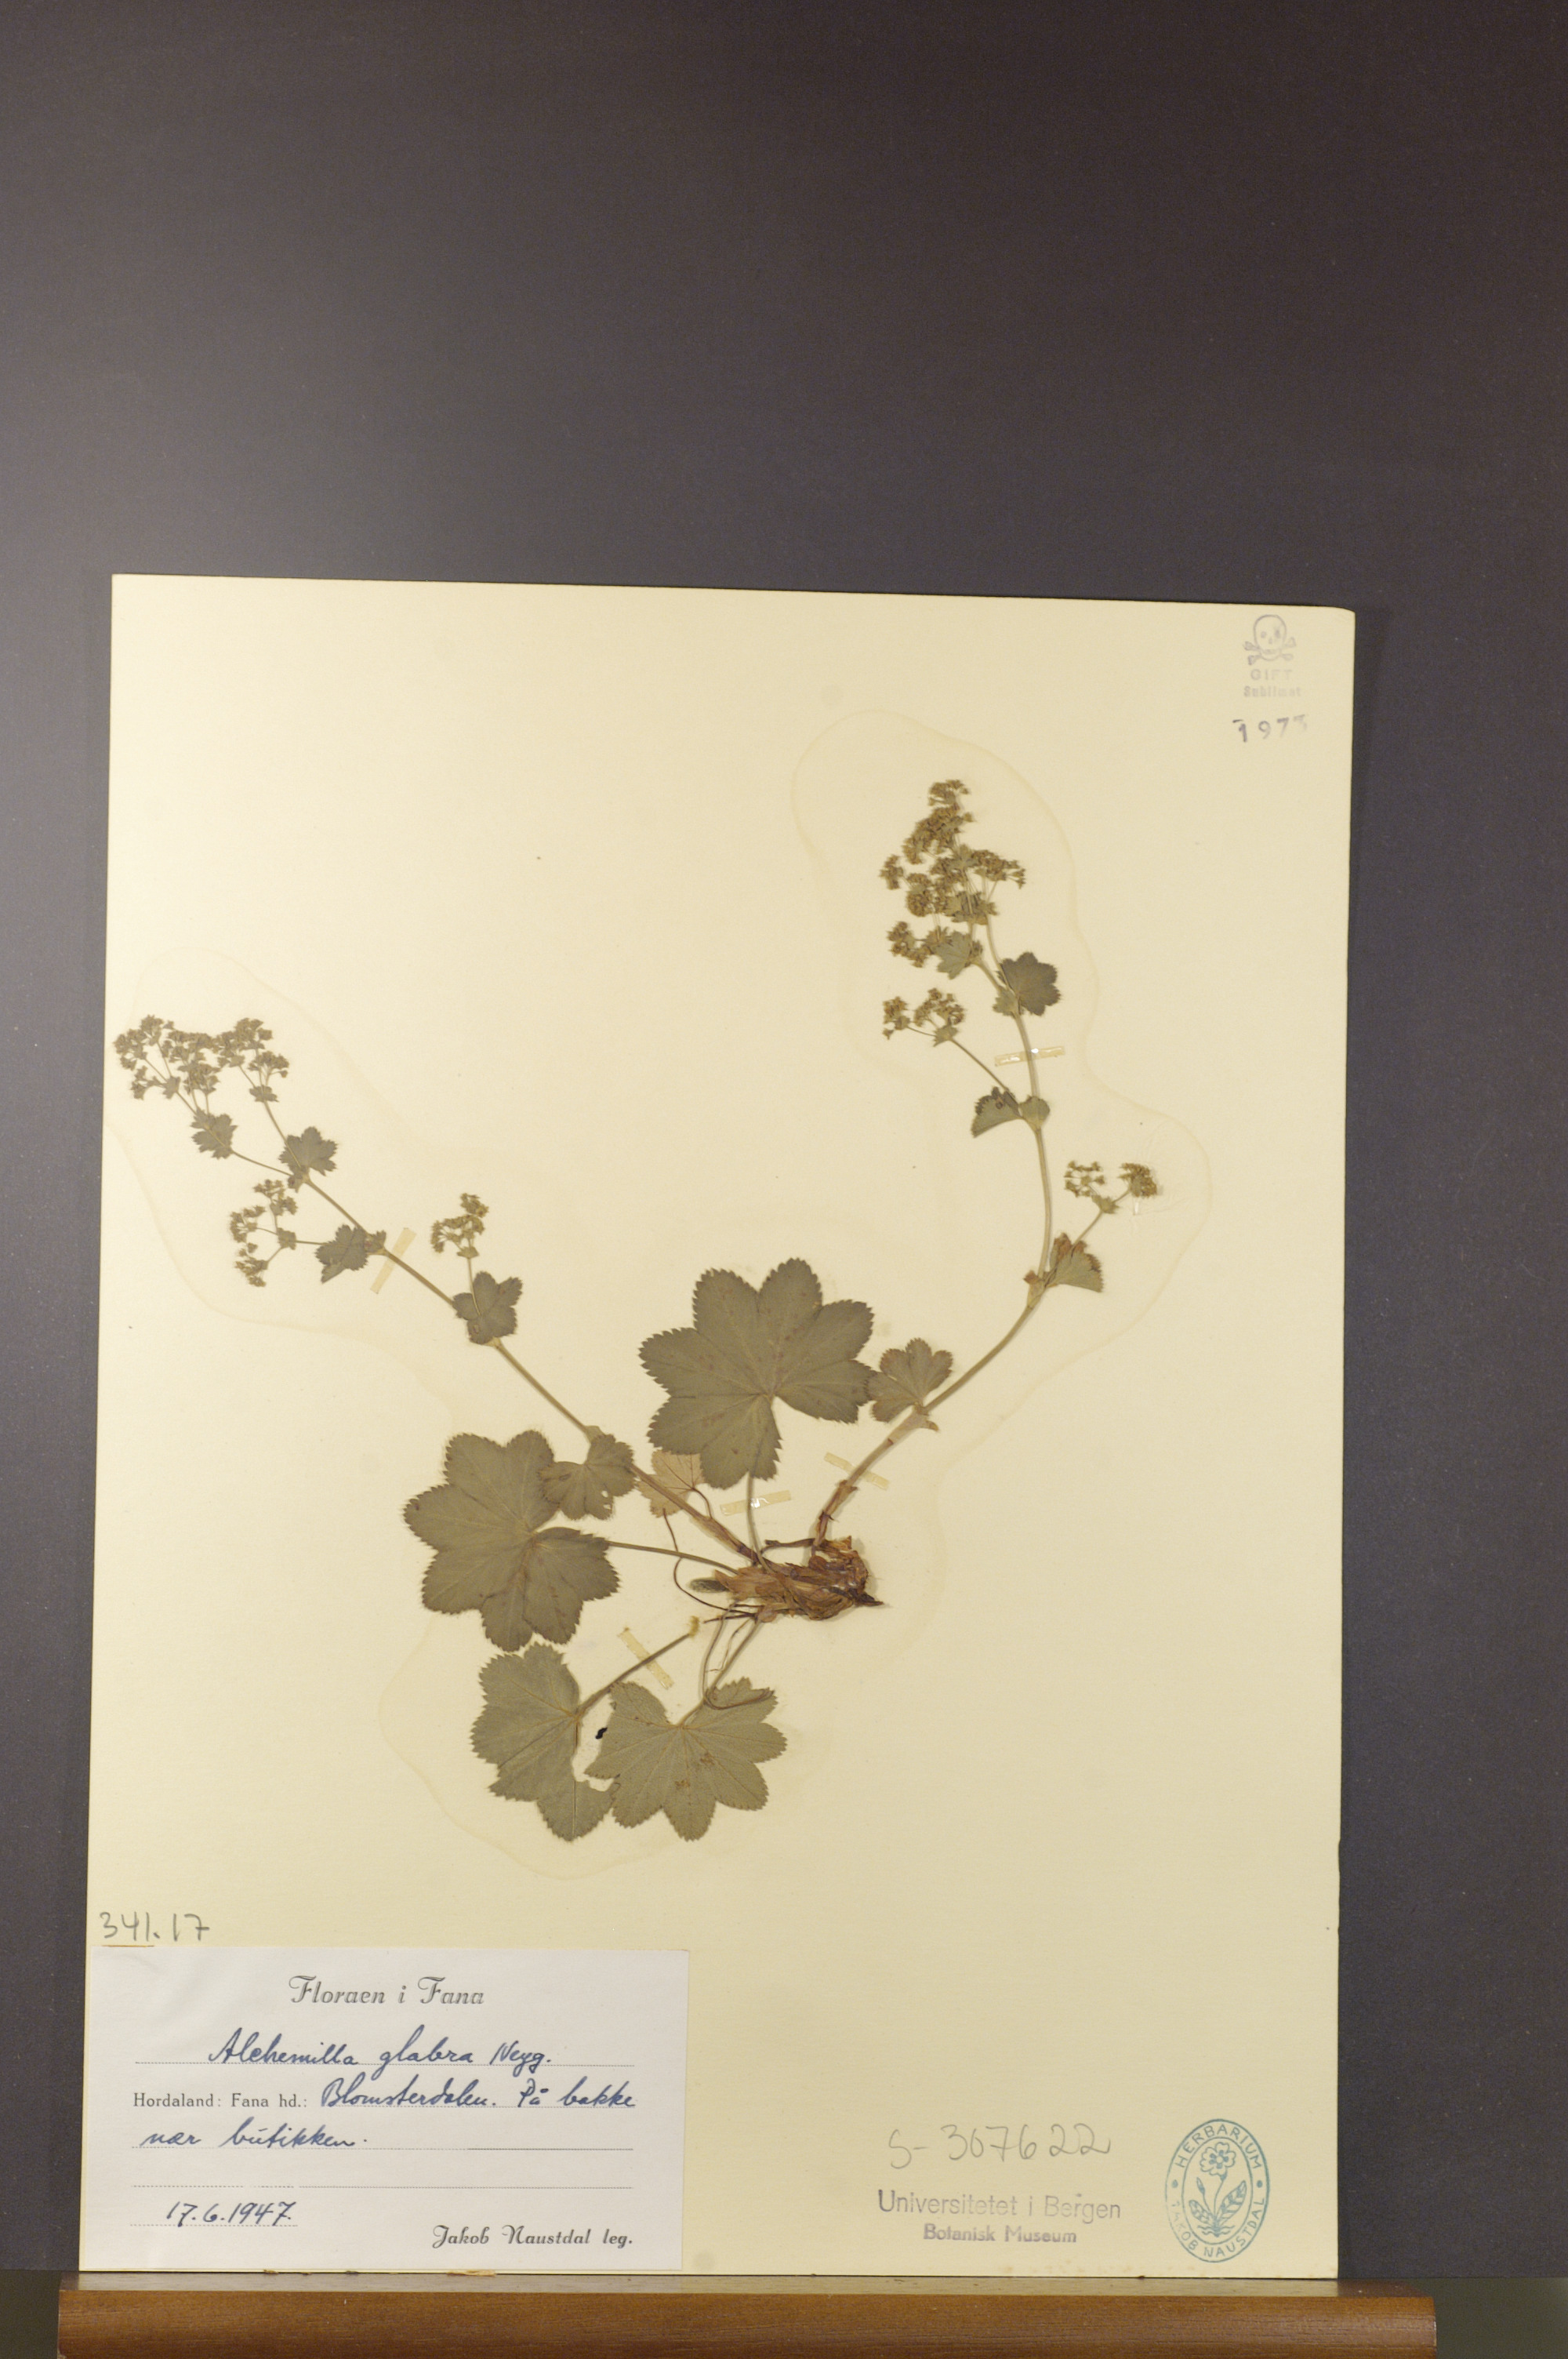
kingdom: Plantae
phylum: Tracheophyta
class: Magnoliopsida
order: Rosales
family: Rosaceae
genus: Alchemilla
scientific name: Alchemilla glabra
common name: Smooth lady's-mantle
